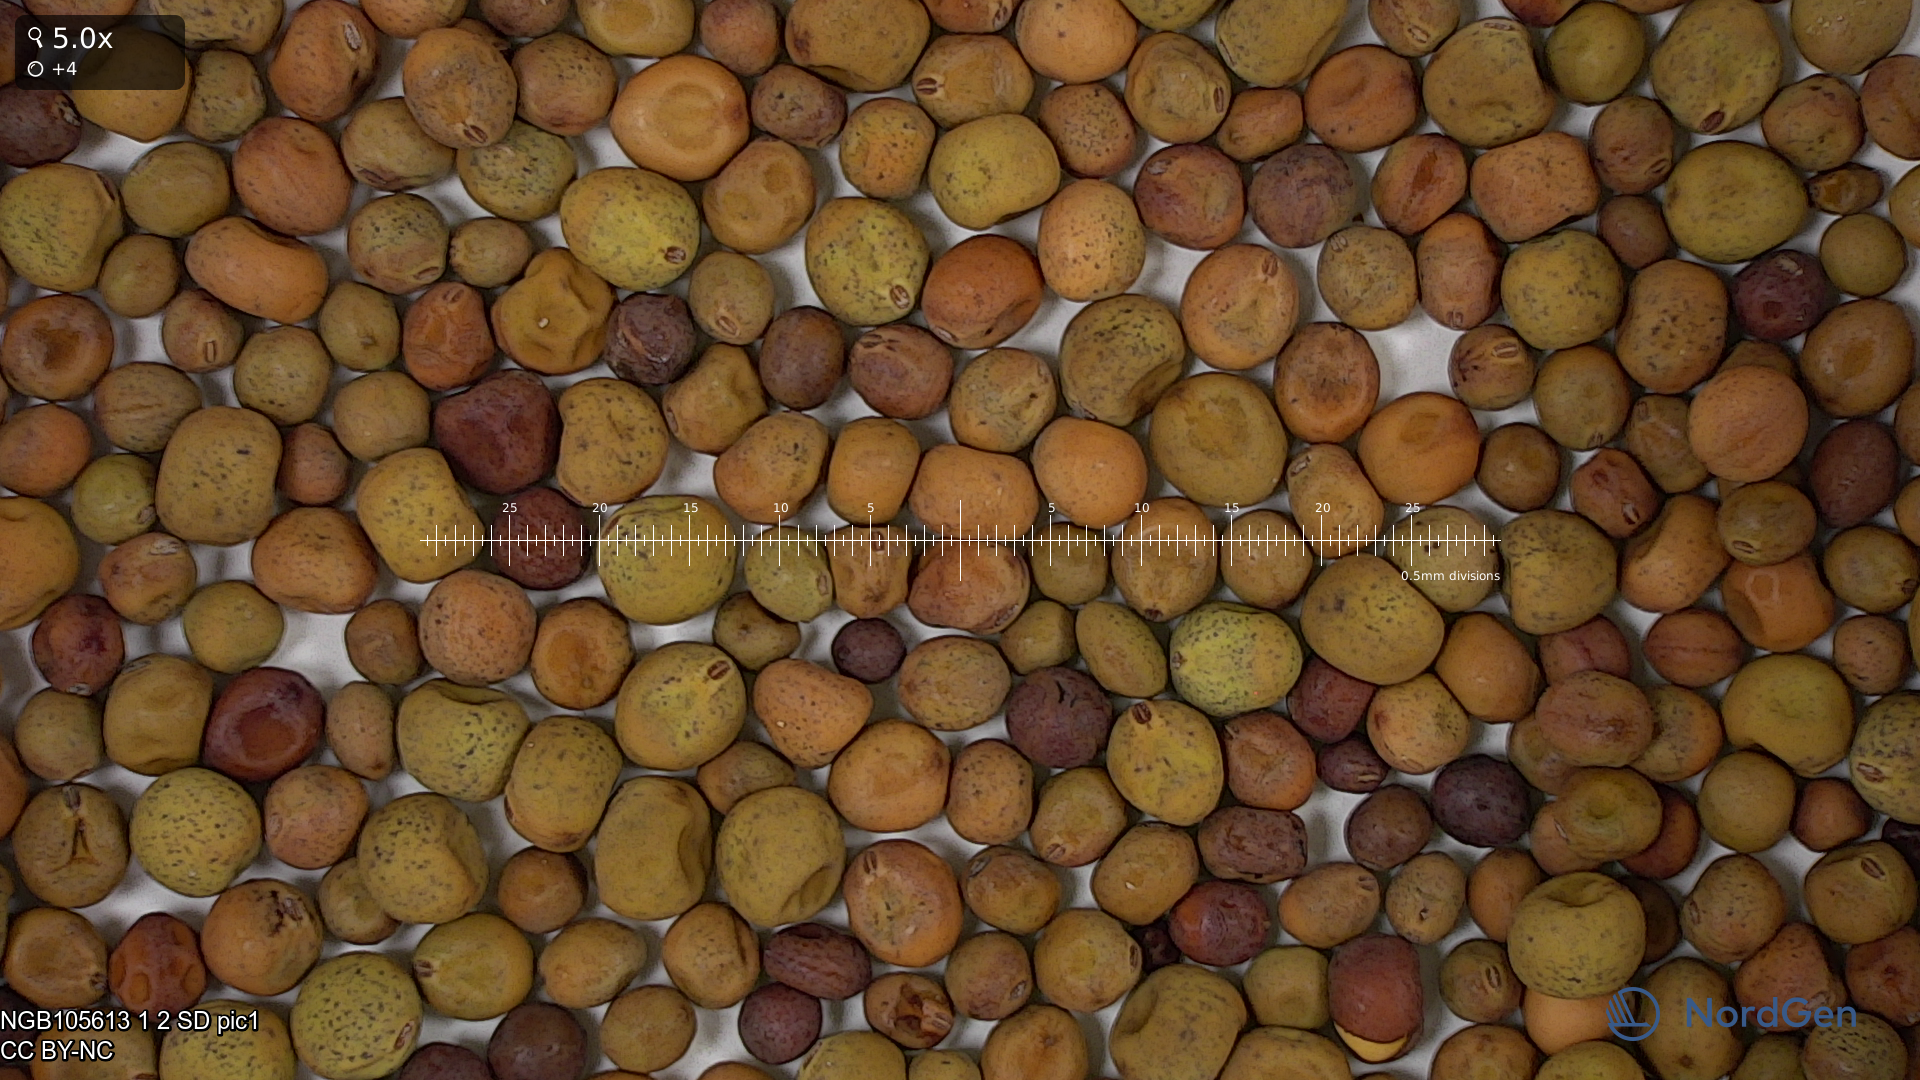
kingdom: Plantae
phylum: Tracheophyta
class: Magnoliopsida
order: Fabales
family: Fabaceae
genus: Lathyrus
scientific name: Lathyrus oleraceus
